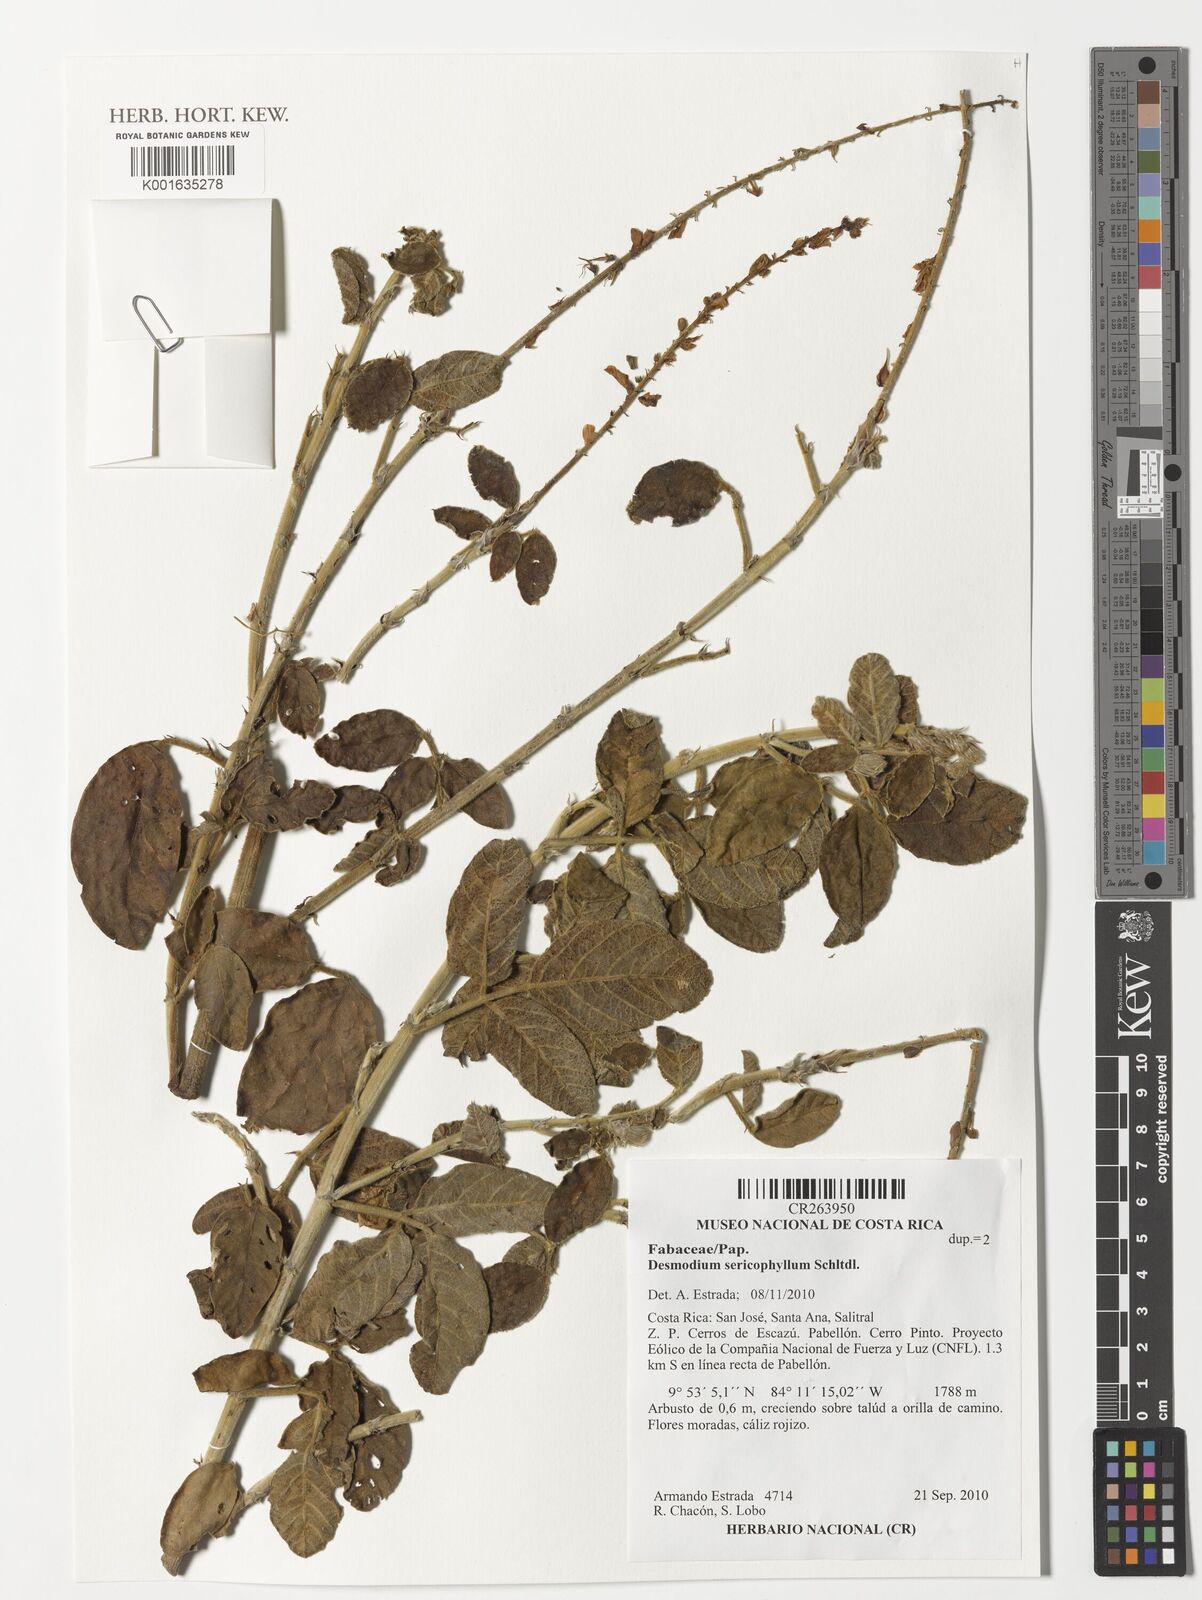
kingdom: Plantae
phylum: Tracheophyta
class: Magnoliopsida
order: Fabales
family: Fabaceae
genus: Desmodium
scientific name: Desmodium sericophyllum
